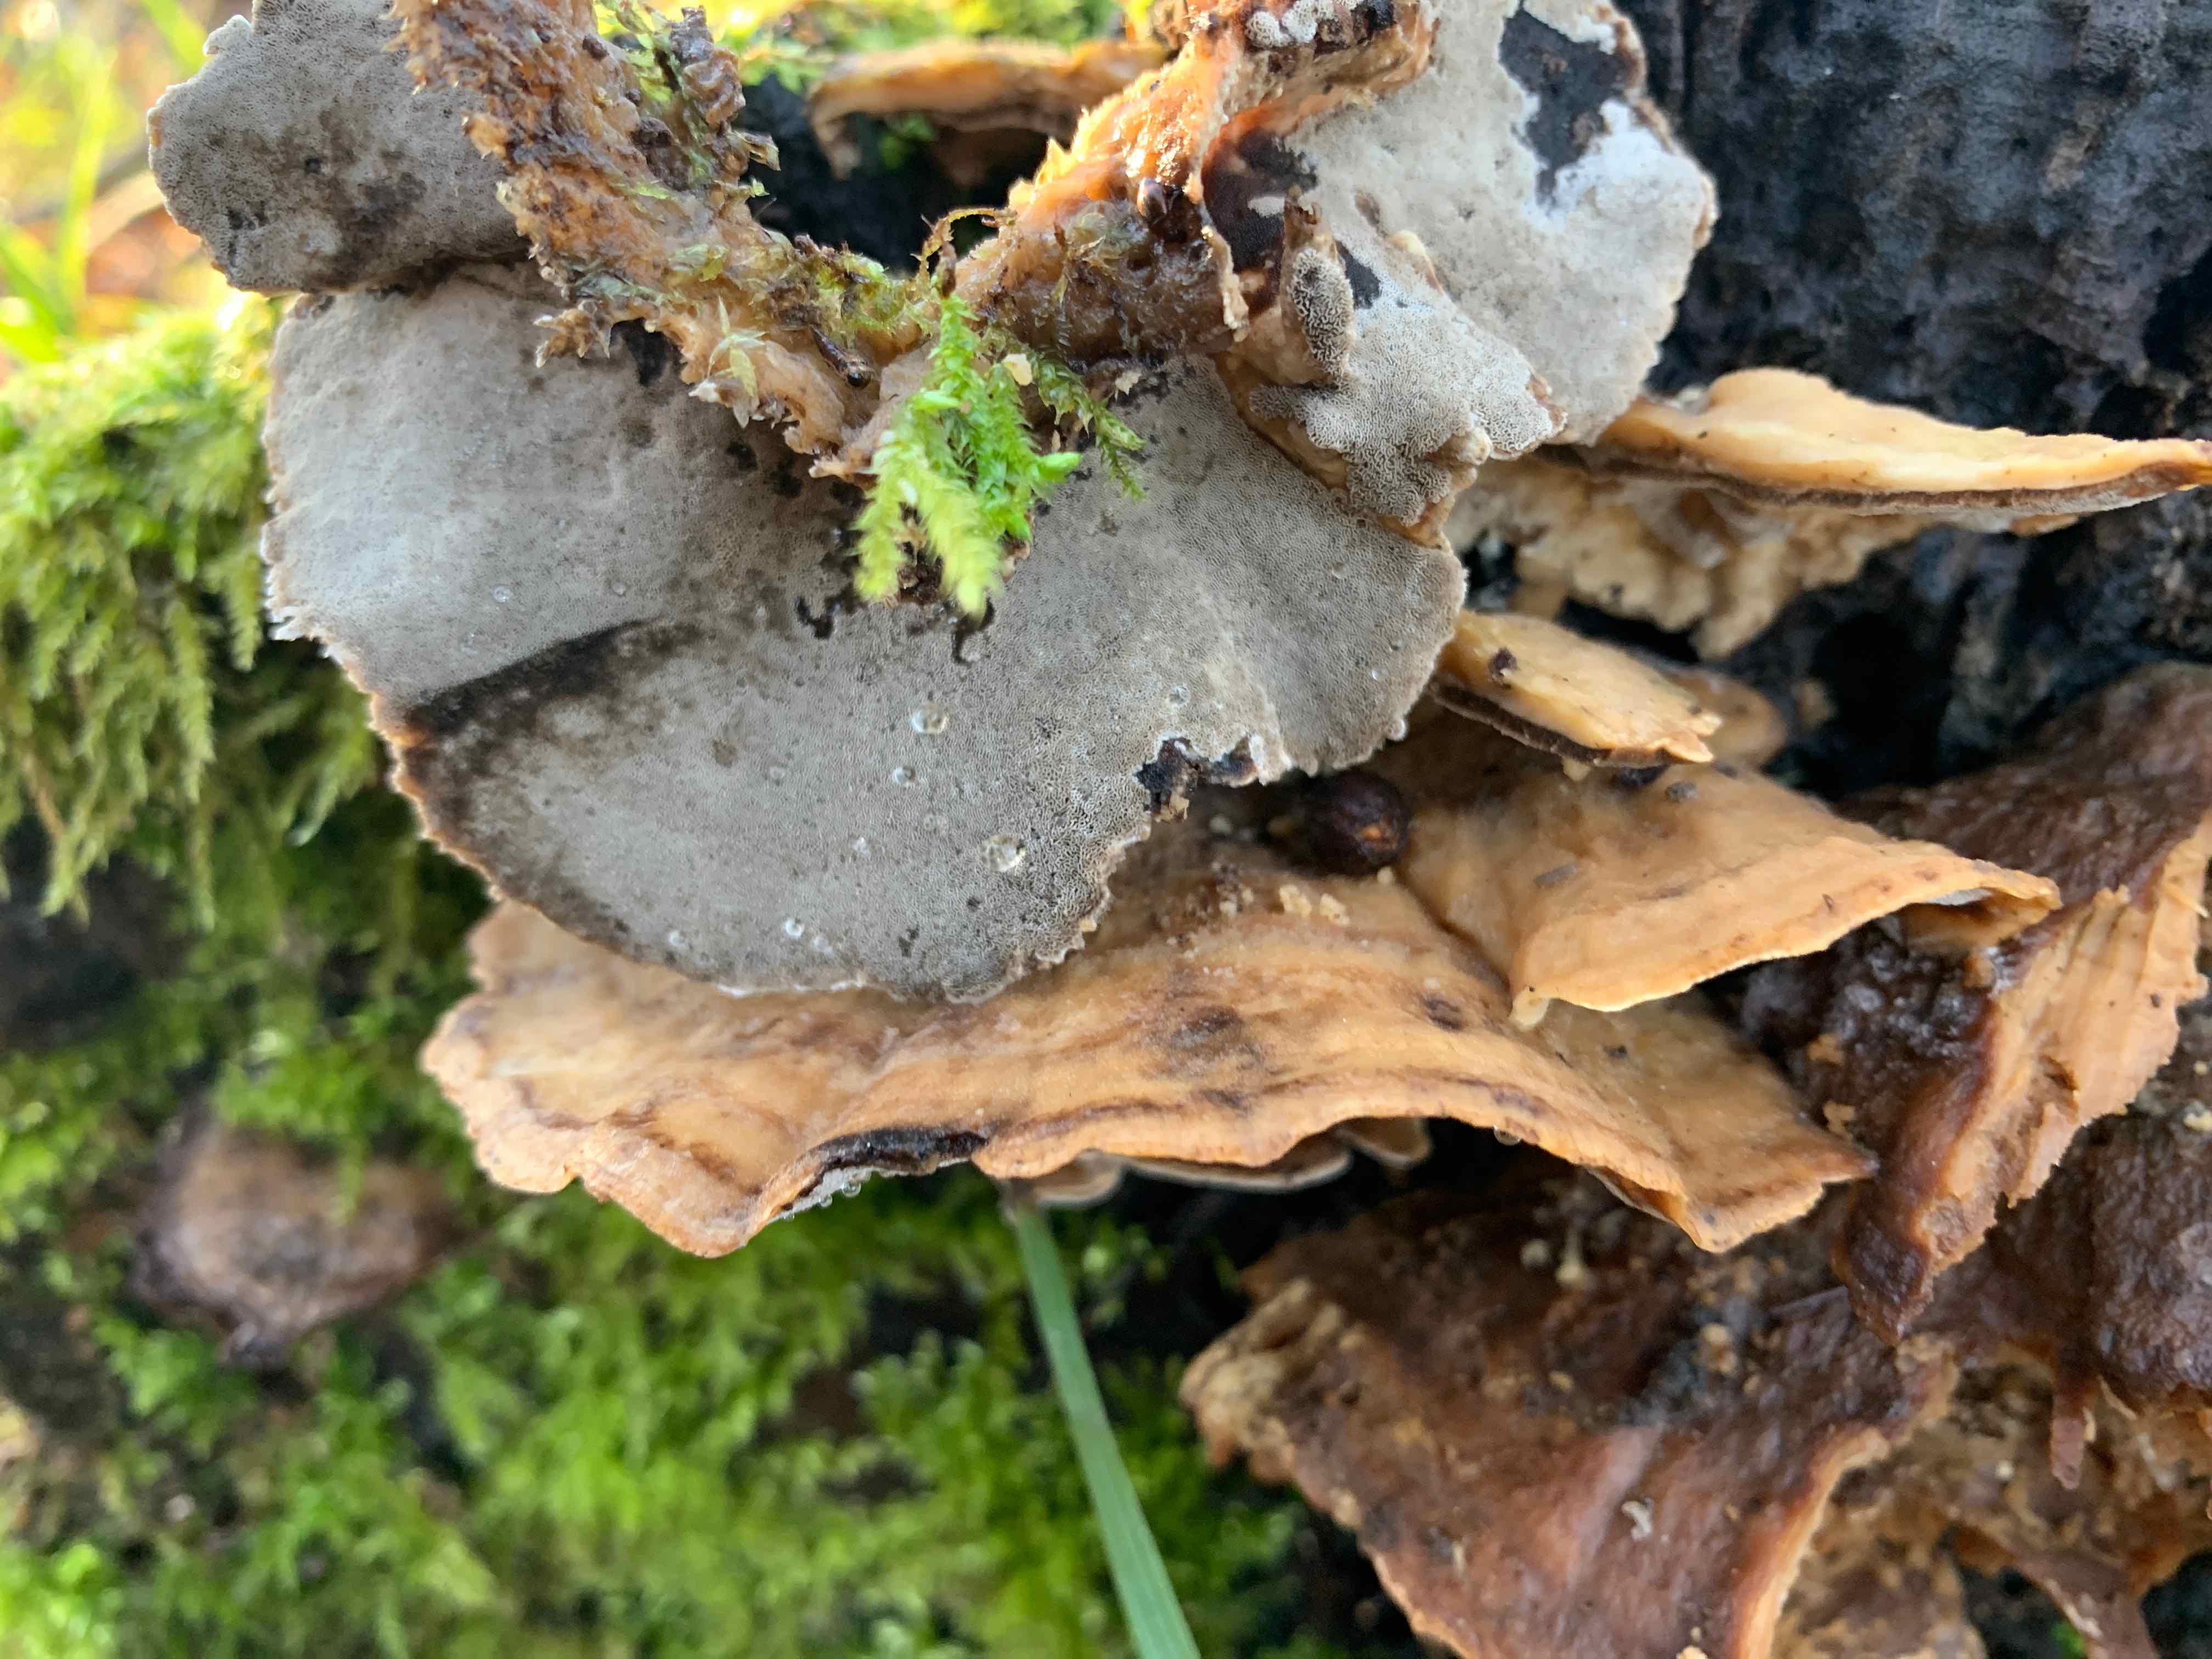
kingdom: Fungi
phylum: Basidiomycota
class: Agaricomycetes
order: Polyporales
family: Phanerochaetaceae
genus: Bjerkandera
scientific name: Bjerkandera adusta
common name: sveden sodporesvamp
